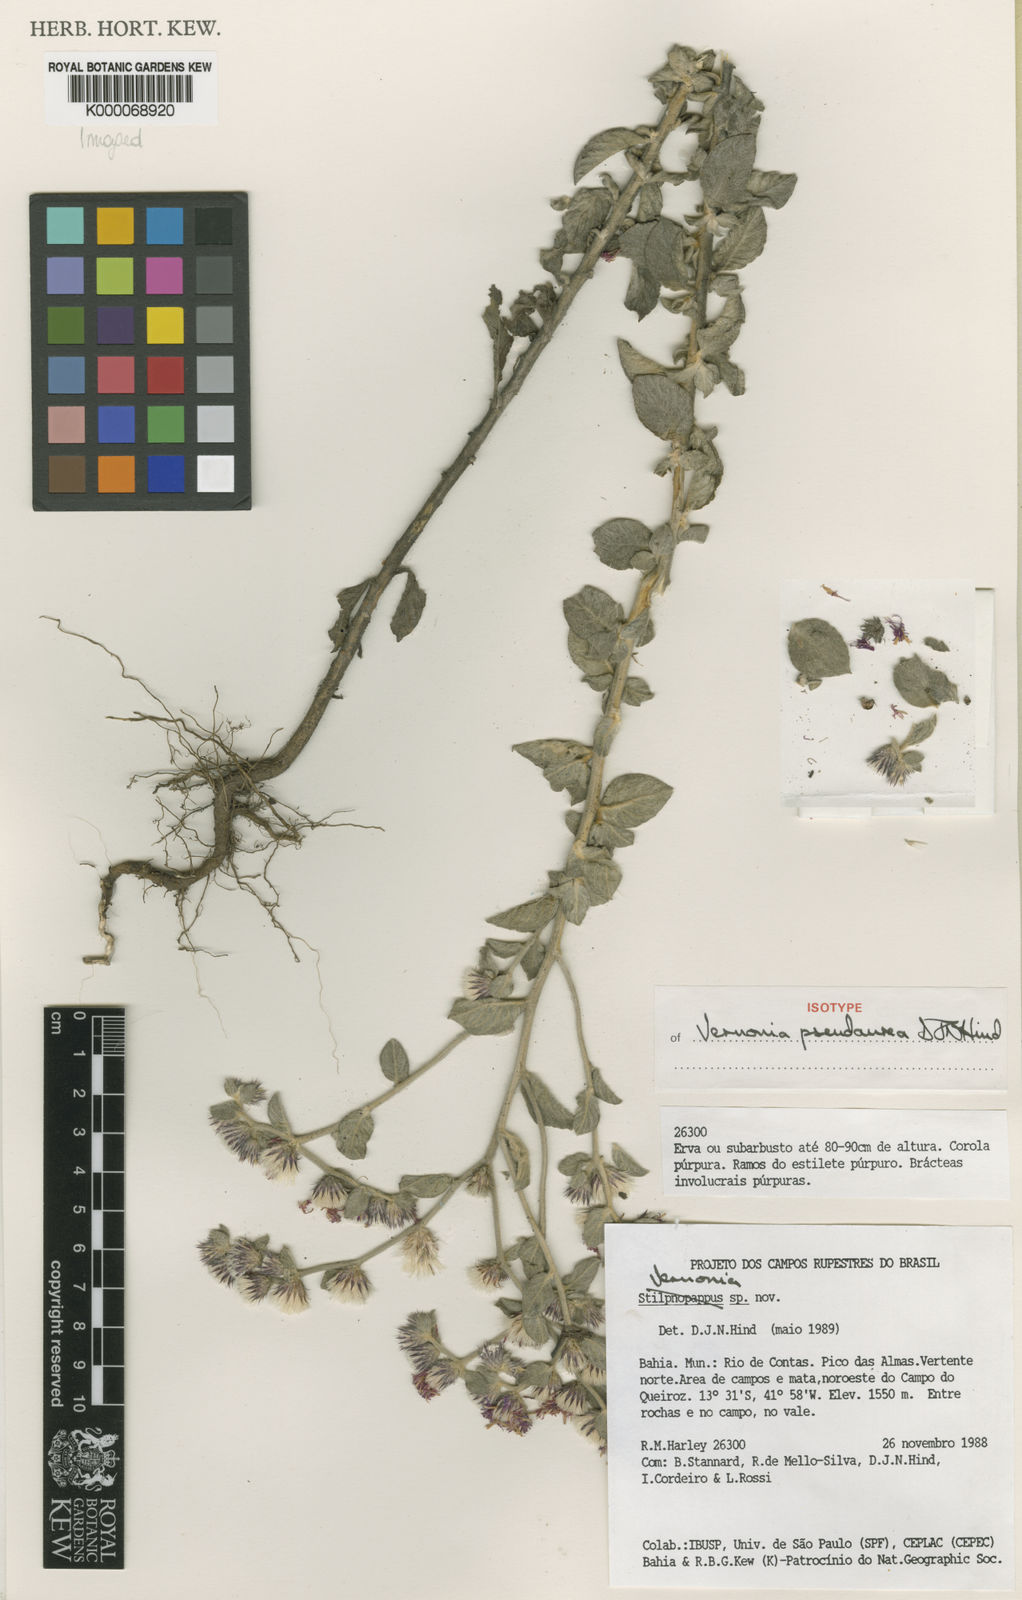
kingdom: Plantae
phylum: Tracheophyta
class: Magnoliopsida
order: Asterales
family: Asteraceae
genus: Lepidaploa
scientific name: Lepidaploa pseudaurea
